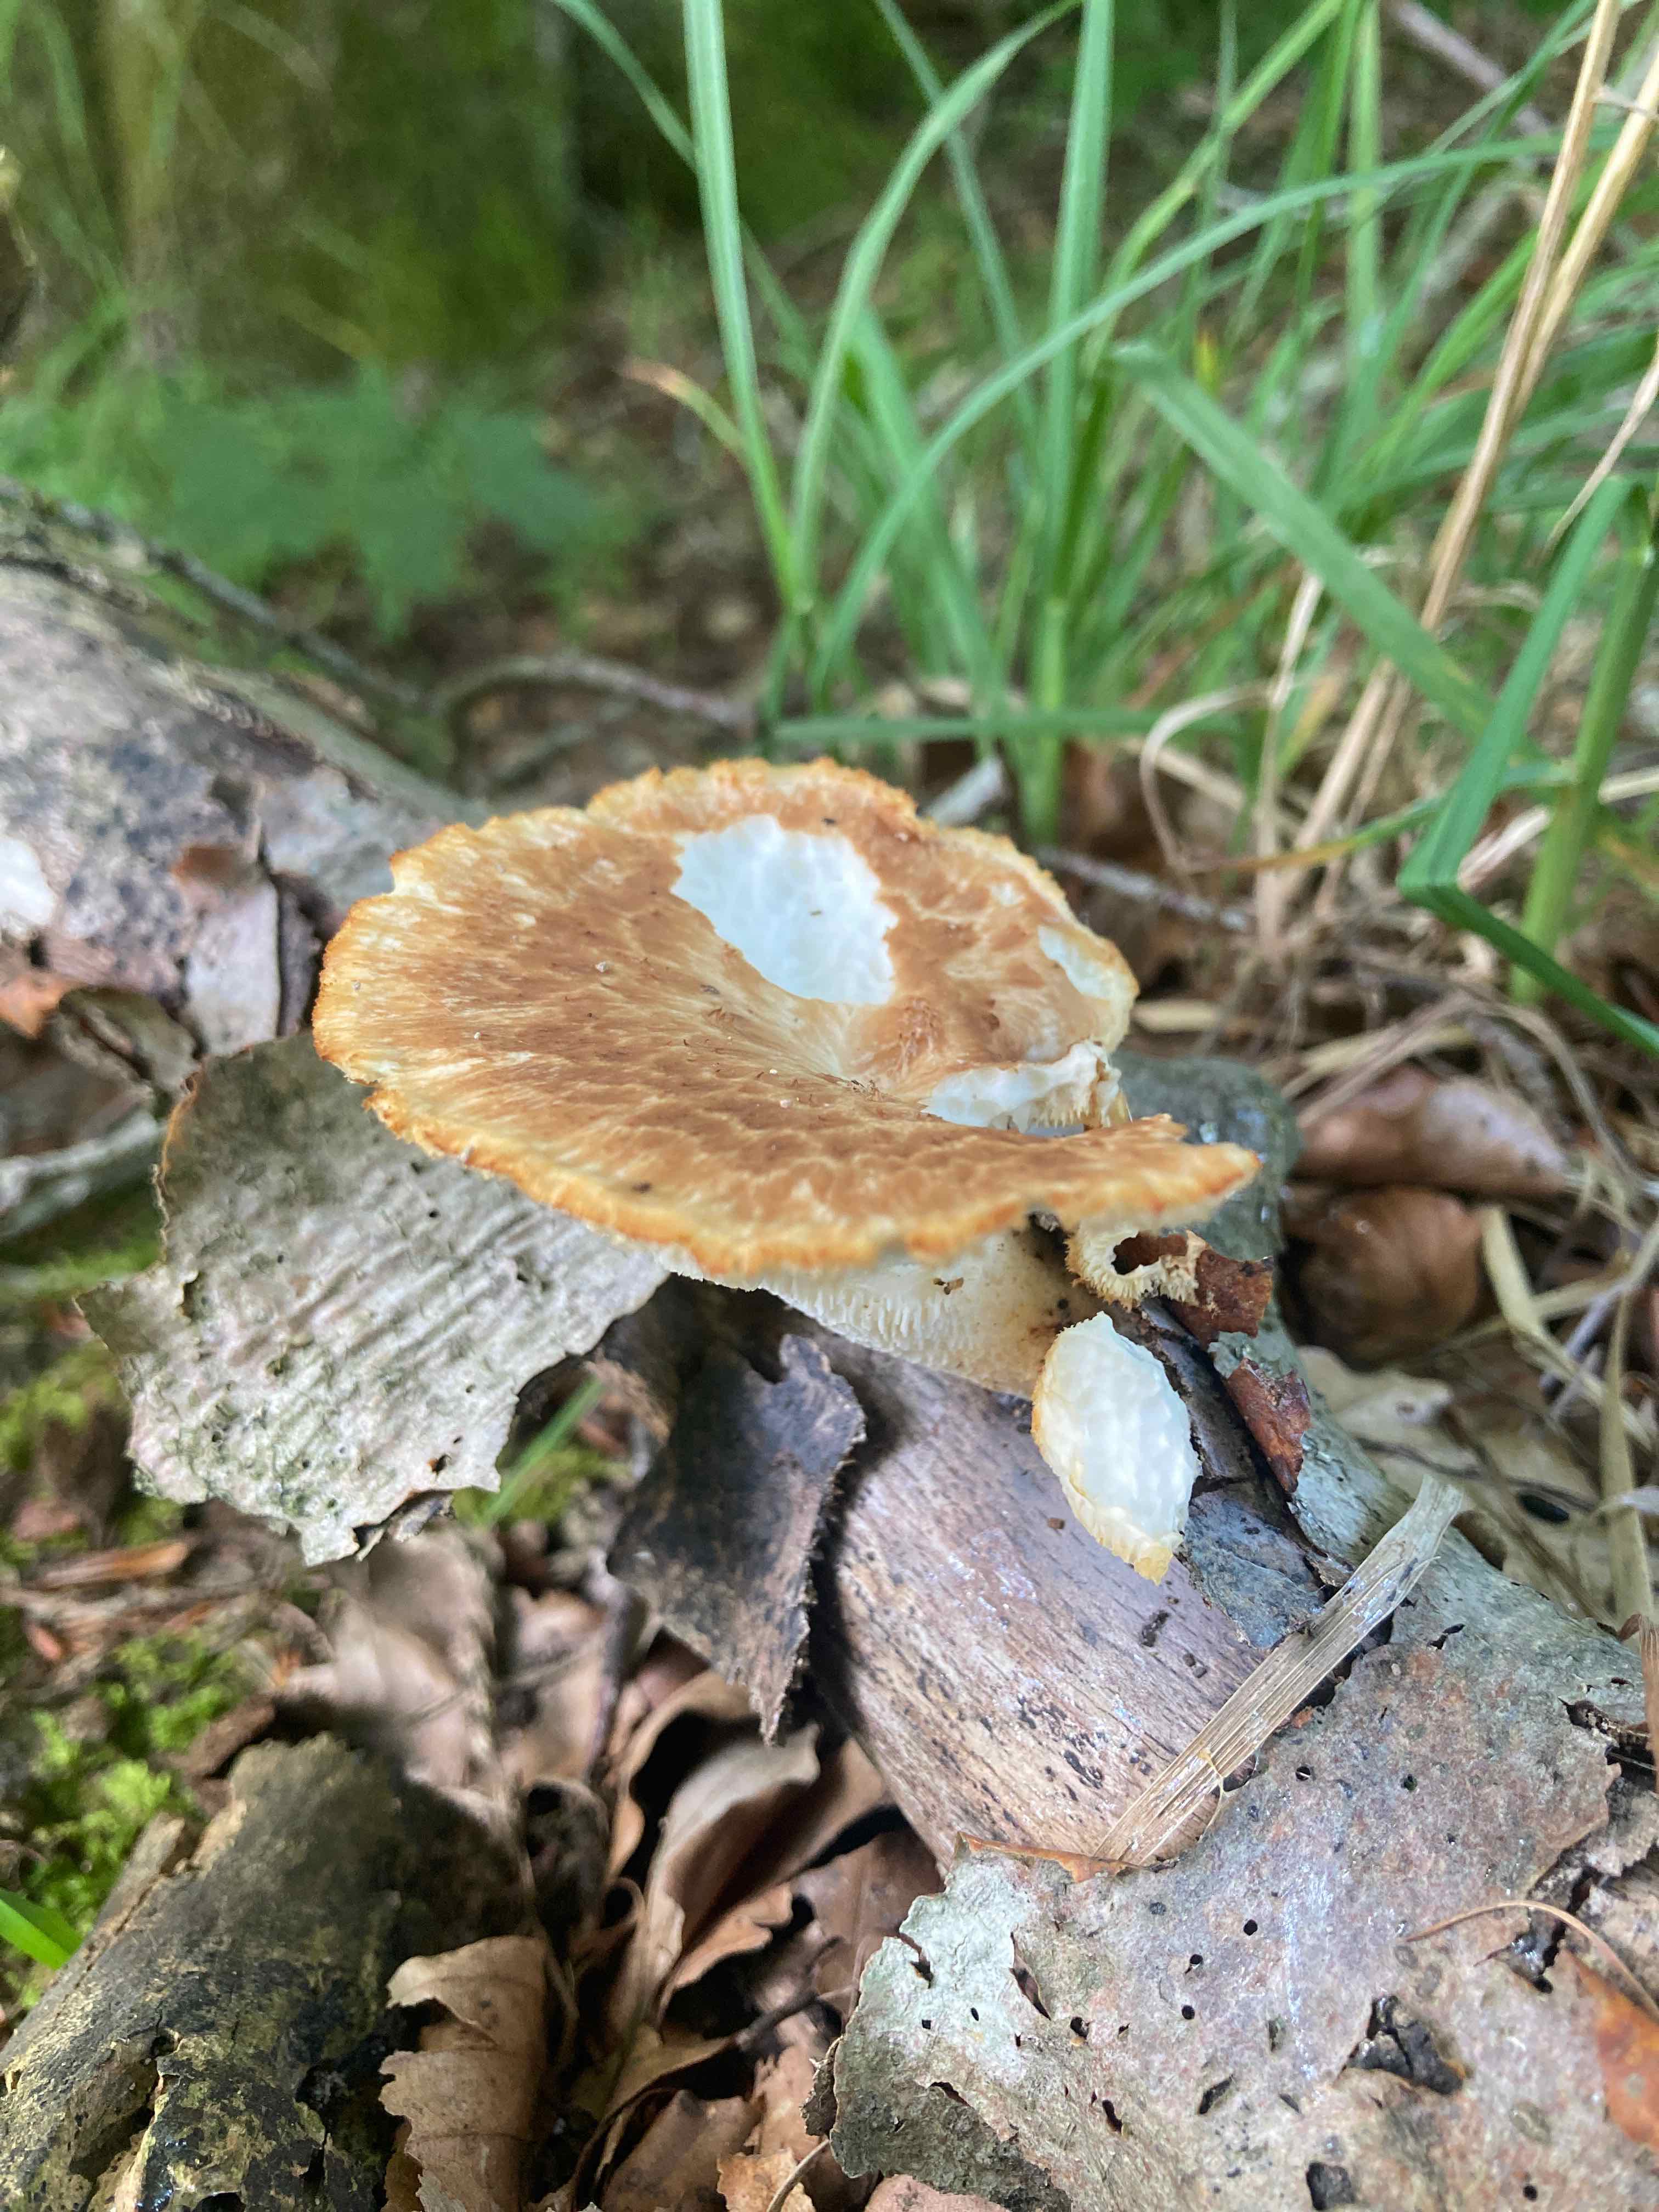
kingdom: Fungi
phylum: Basidiomycota
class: Agaricomycetes
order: Polyporales
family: Polyporaceae
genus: Polyporus
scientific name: Polyporus tuberaster
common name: knoldet stilkporesvamp
